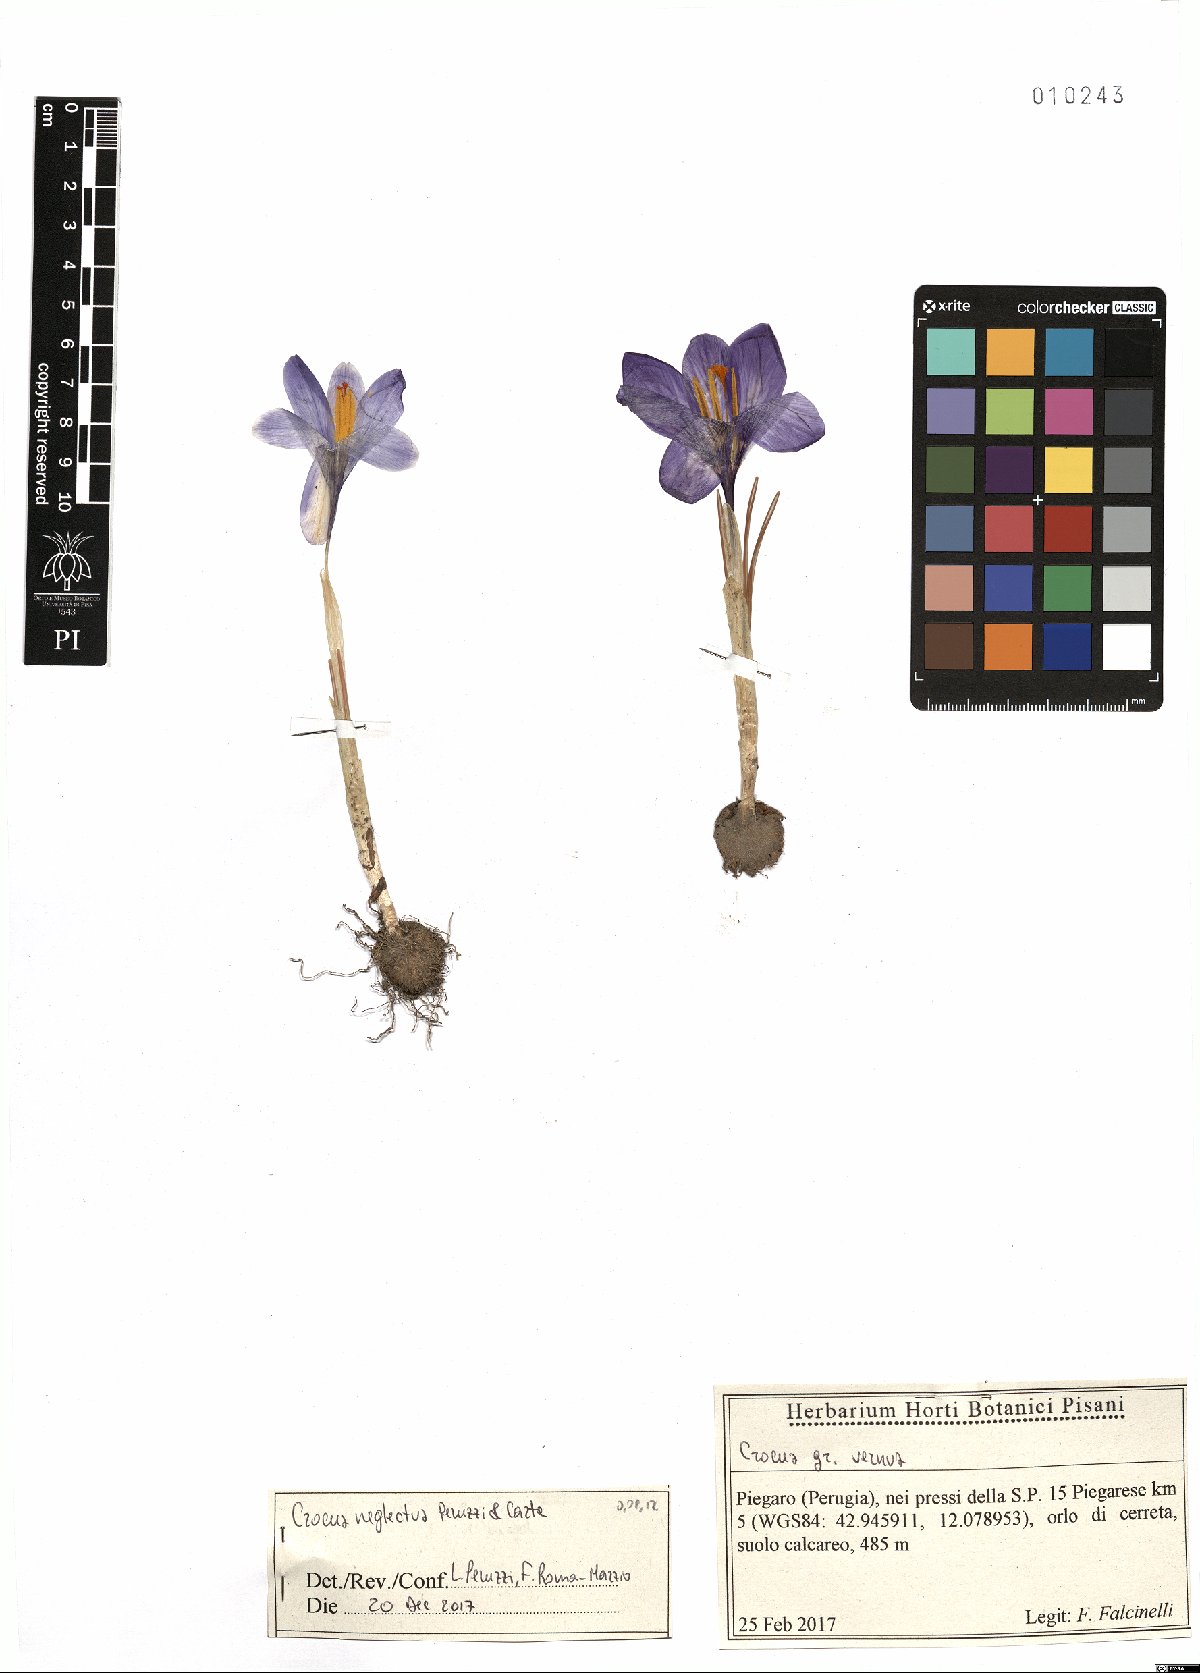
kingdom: Plantae
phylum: Tracheophyta
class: Liliopsida
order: Asparagales
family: Iridaceae
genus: Crocus
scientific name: Crocus neglectus
